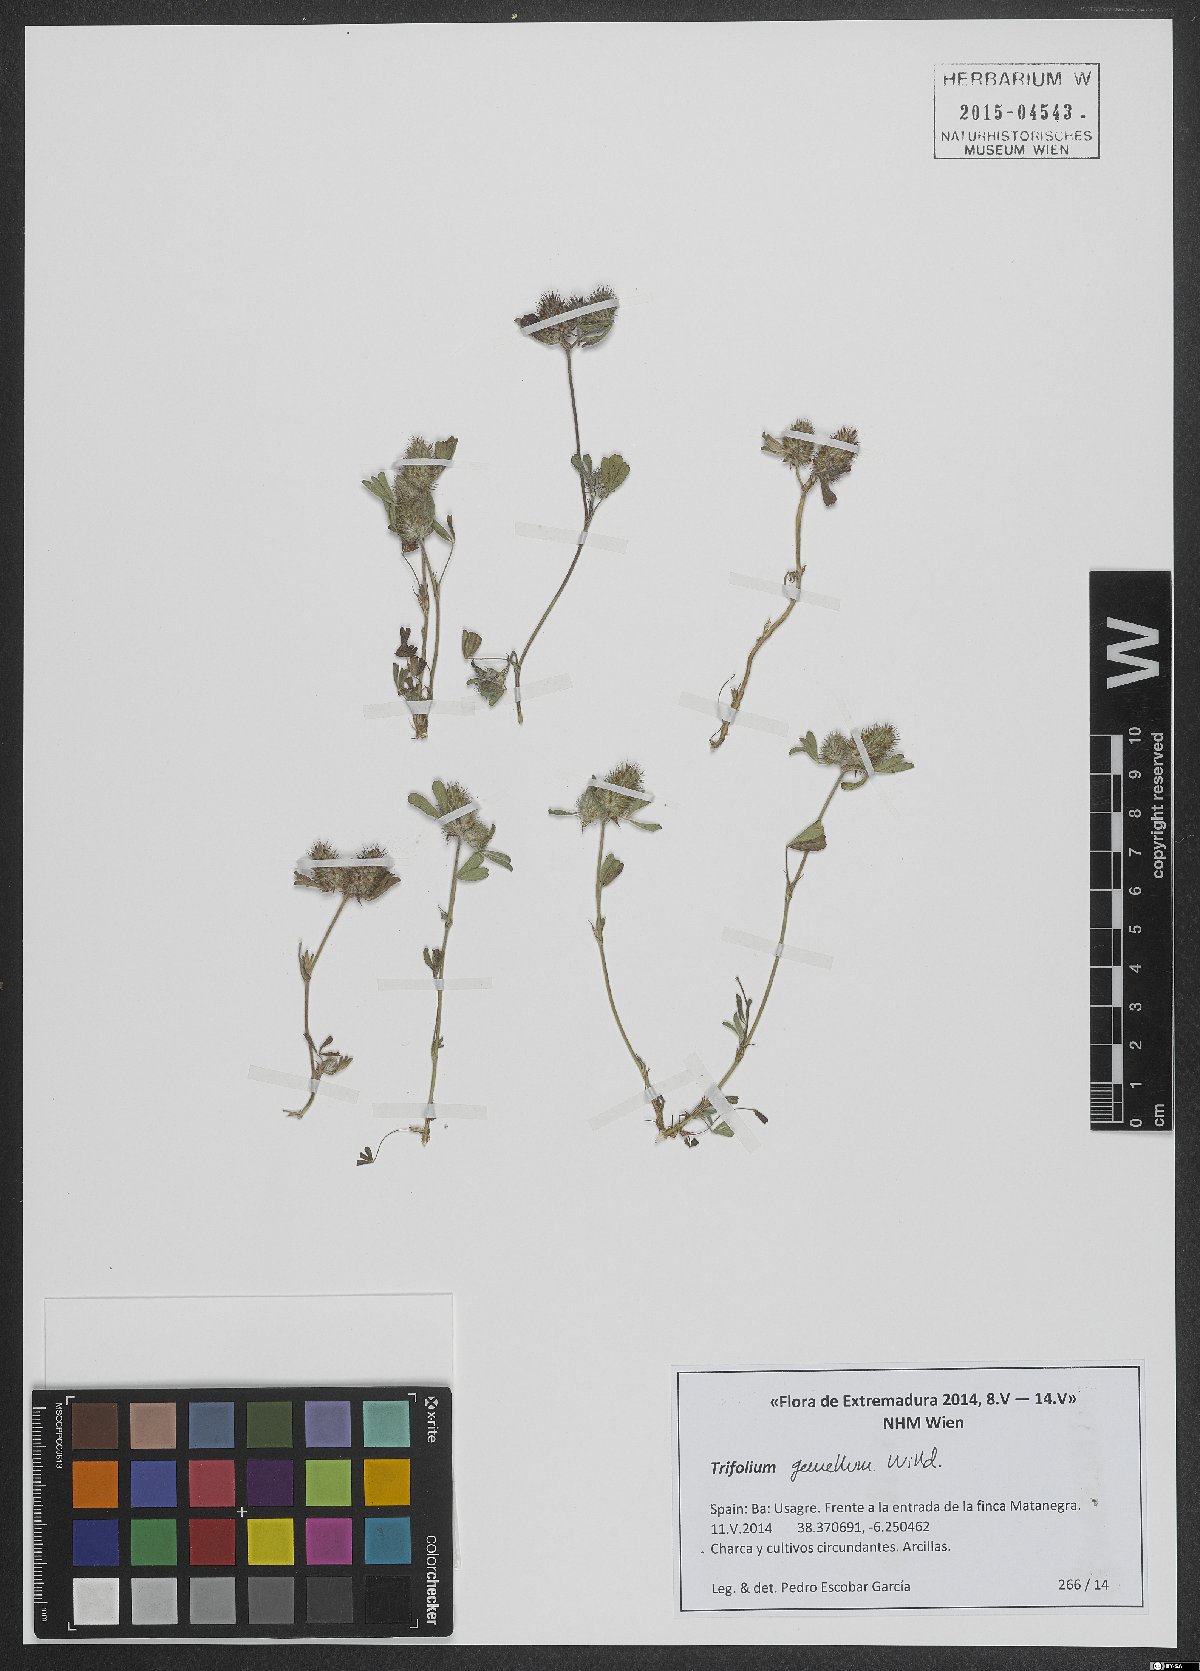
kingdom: Plantae
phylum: Tracheophyta
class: Magnoliopsida
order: Fabales
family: Fabaceae
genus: Trifolium
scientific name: Trifolium gemellum
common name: Spanish clover
